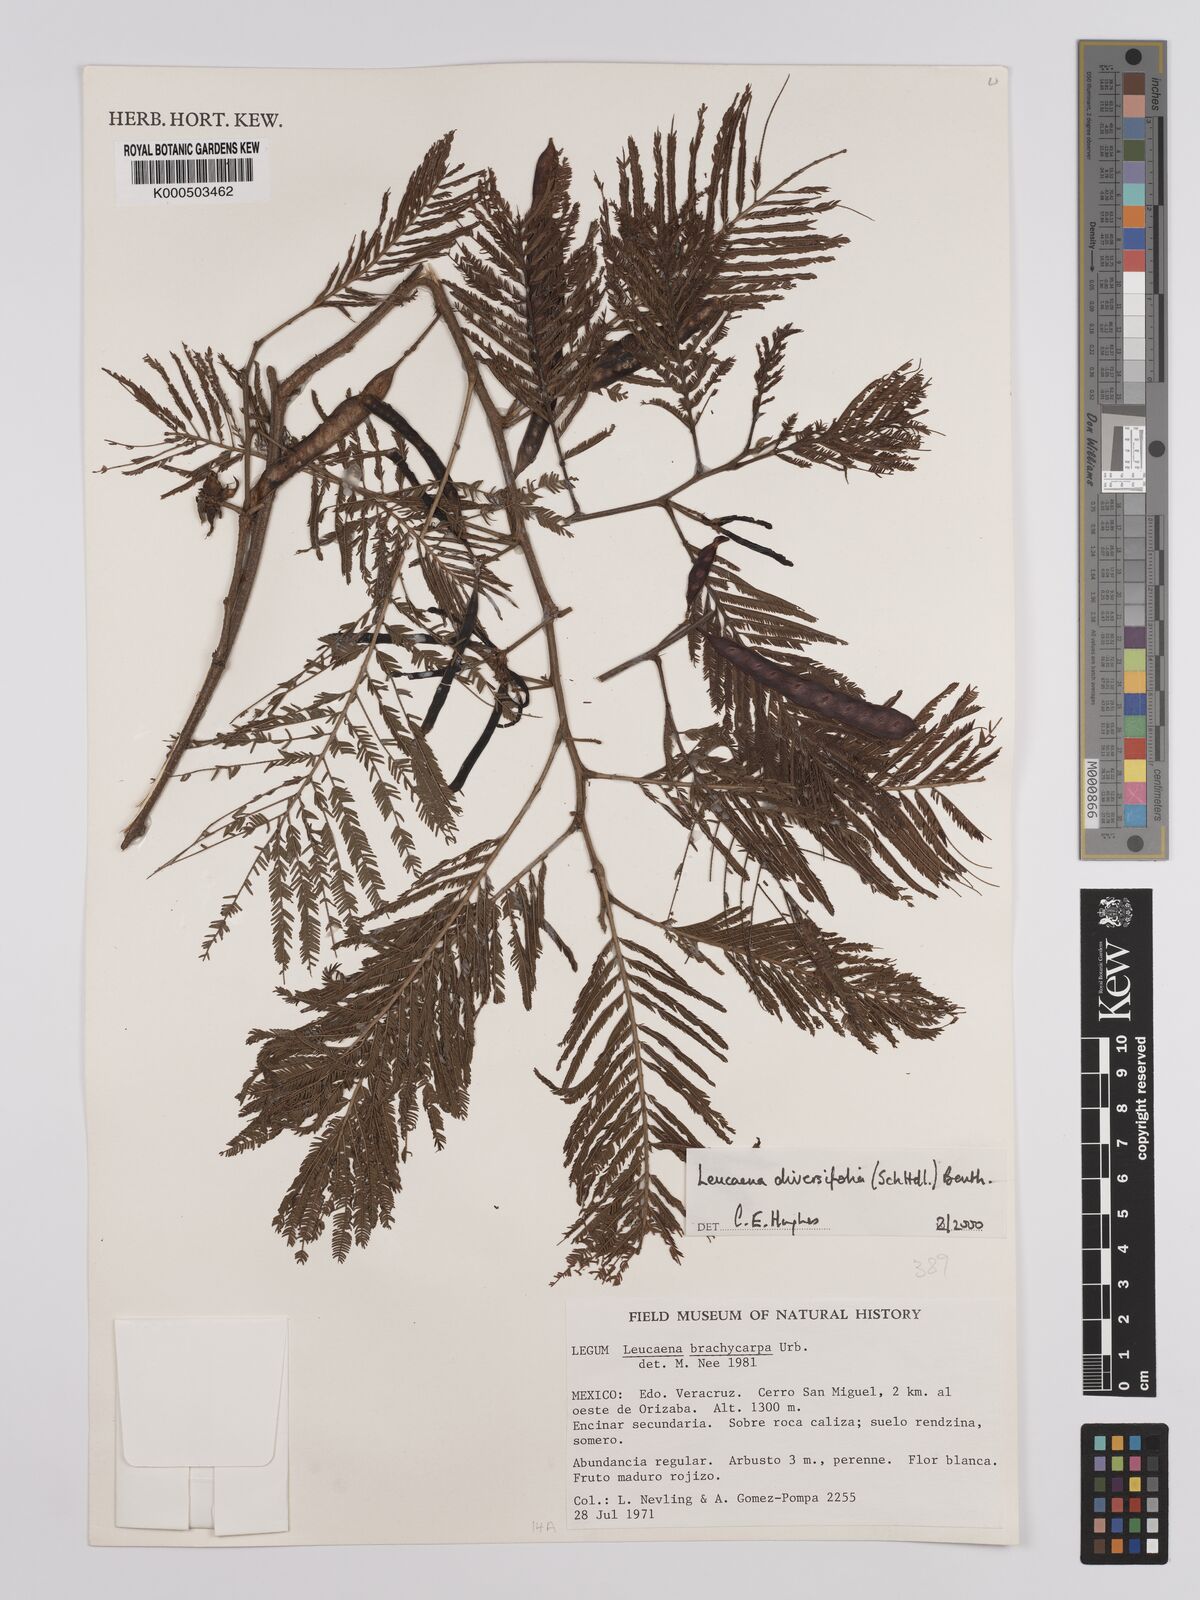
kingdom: Plantae
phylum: Tracheophyta
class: Magnoliopsida
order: Fabales
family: Fabaceae
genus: Leucaena
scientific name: Leucaena diversifolia
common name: Red leucaena
